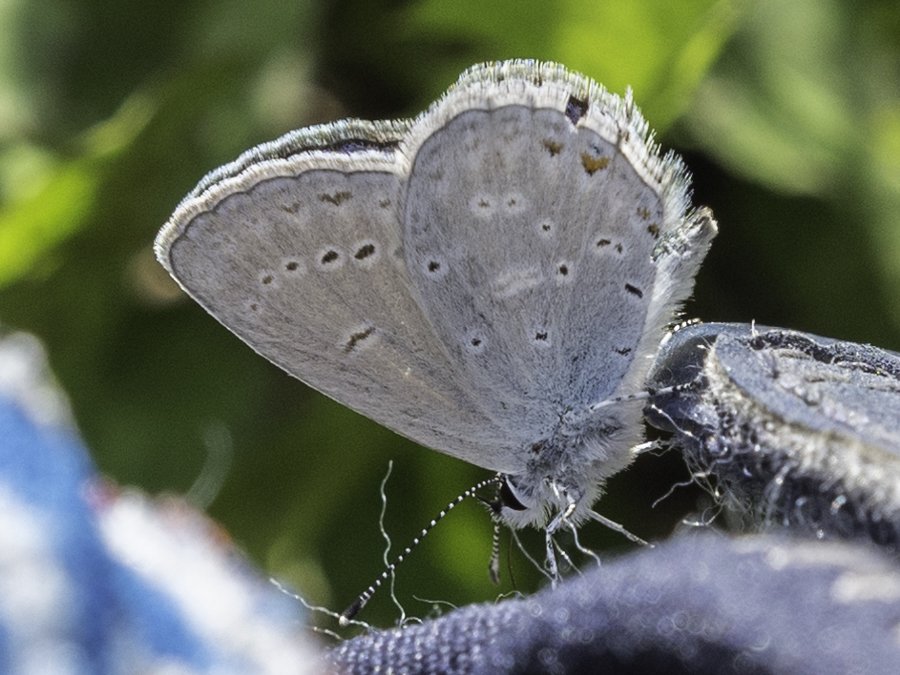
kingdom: Animalia
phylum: Arthropoda
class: Insecta
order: Lepidoptera
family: Lycaenidae
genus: Elkalyce
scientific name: Elkalyce amyntula
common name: Western Tailed-Blue
